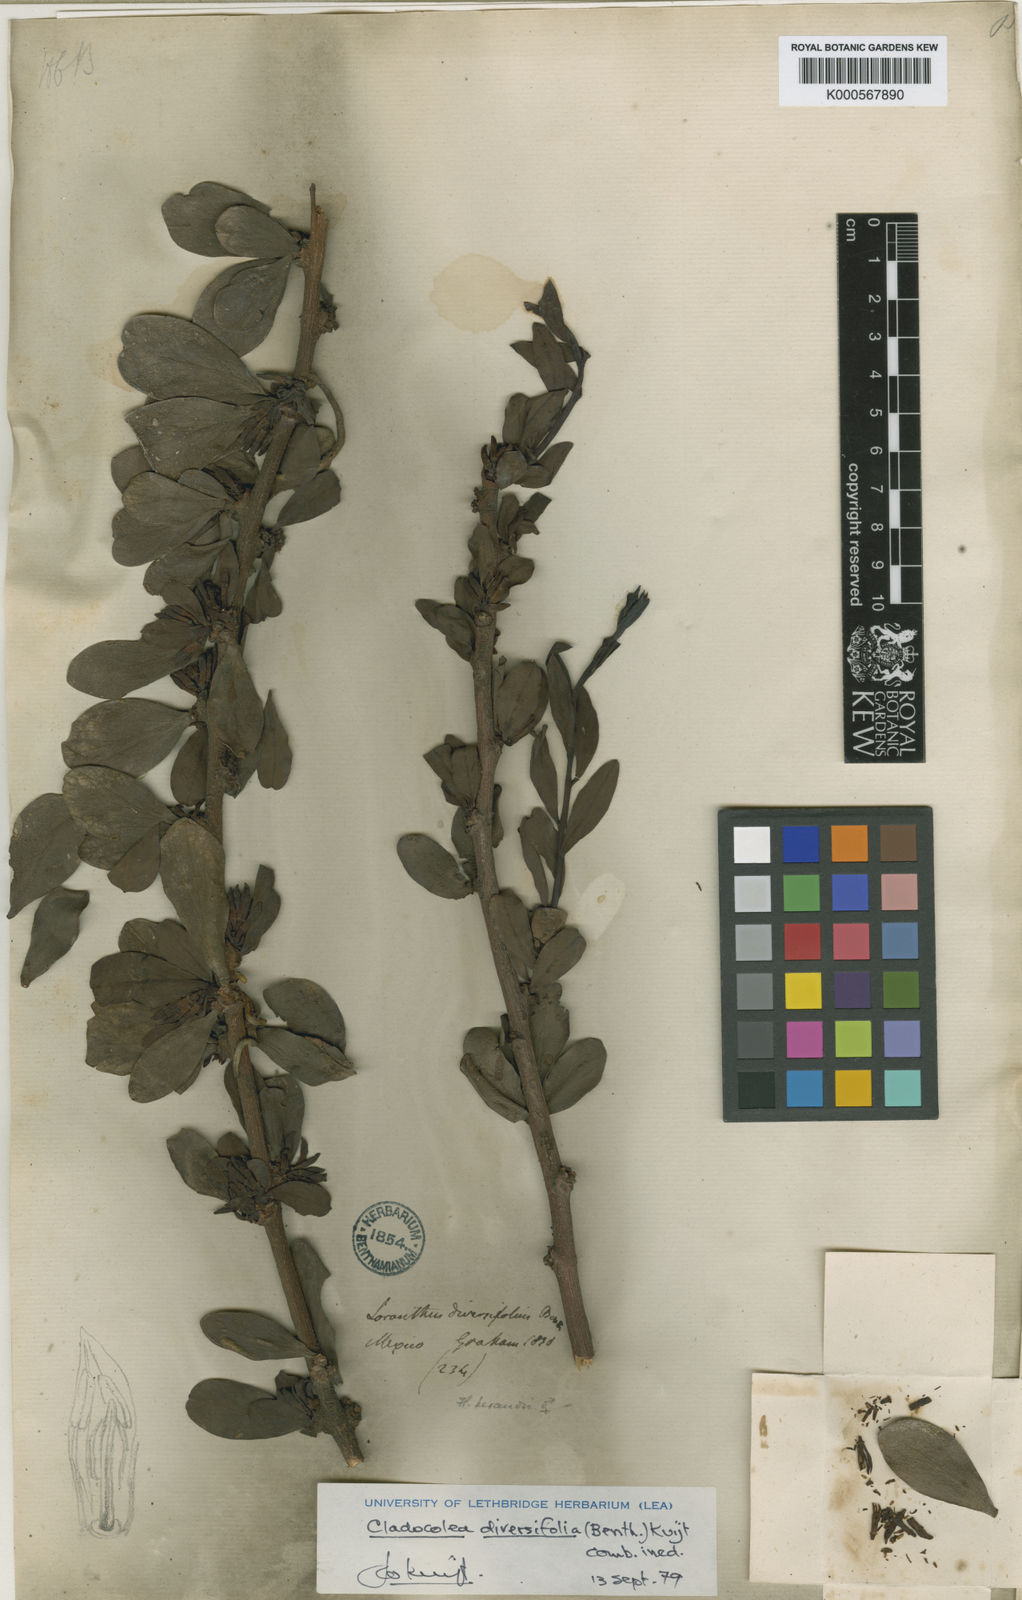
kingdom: Plantae
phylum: Tracheophyta
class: Magnoliopsida
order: Santalales
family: Loranthaceae
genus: Cladocolea
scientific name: Cladocolea diversifolia
